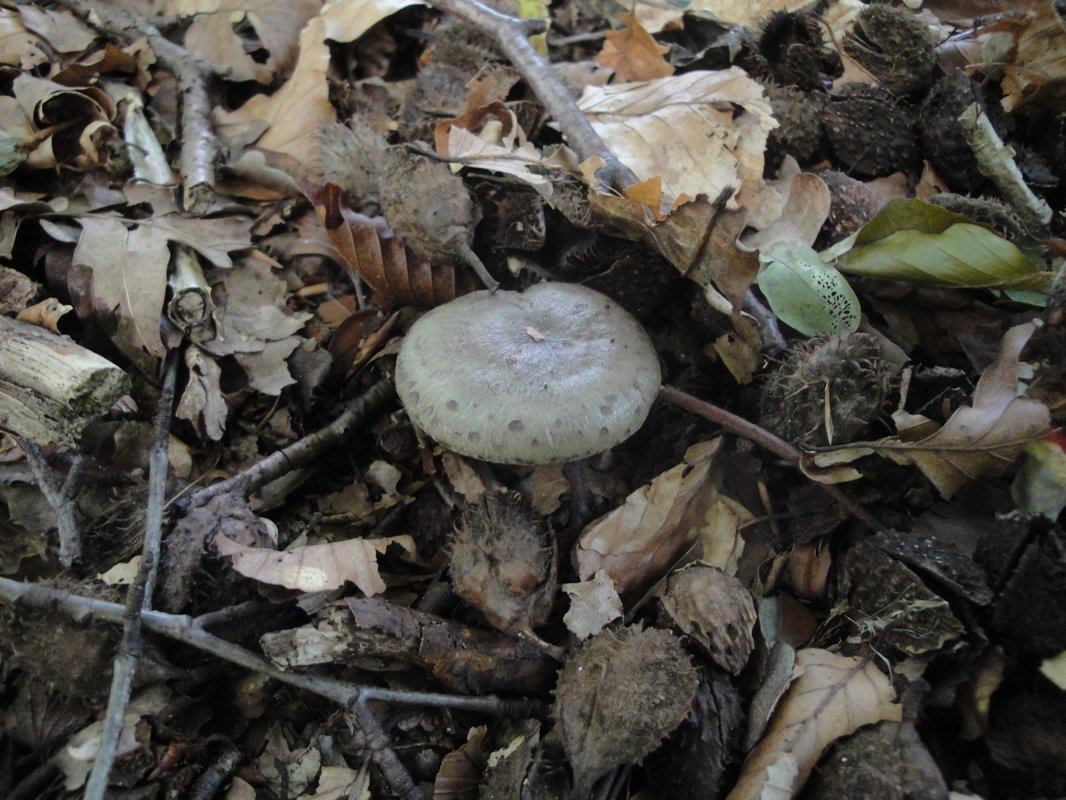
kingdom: Fungi
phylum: Basidiomycota
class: Agaricomycetes
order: Russulales
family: Russulaceae
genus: Lactarius
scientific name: Lactarius blennius
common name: dråbeplettet mælkehat
